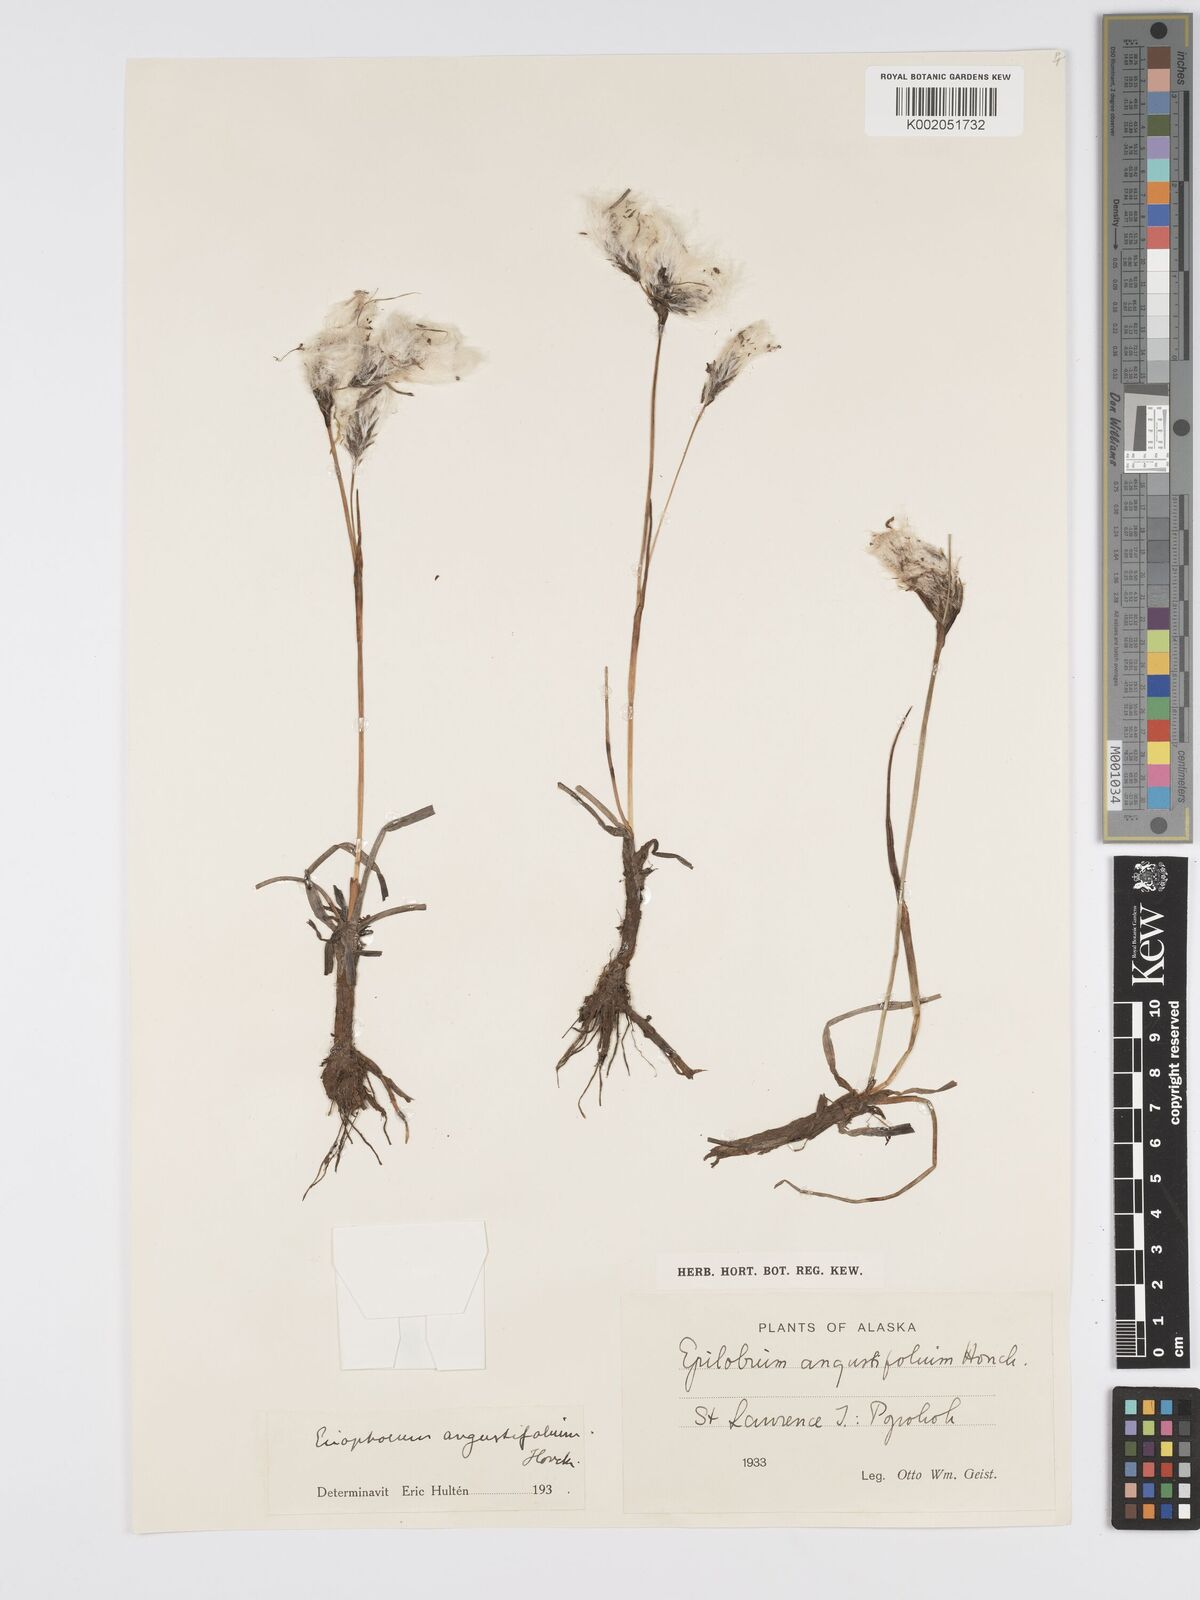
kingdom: Plantae
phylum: Tracheophyta
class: Liliopsida
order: Poales
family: Cyperaceae
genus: Eriophorum
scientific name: Eriophorum angustifolium
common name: Common cottongrass
